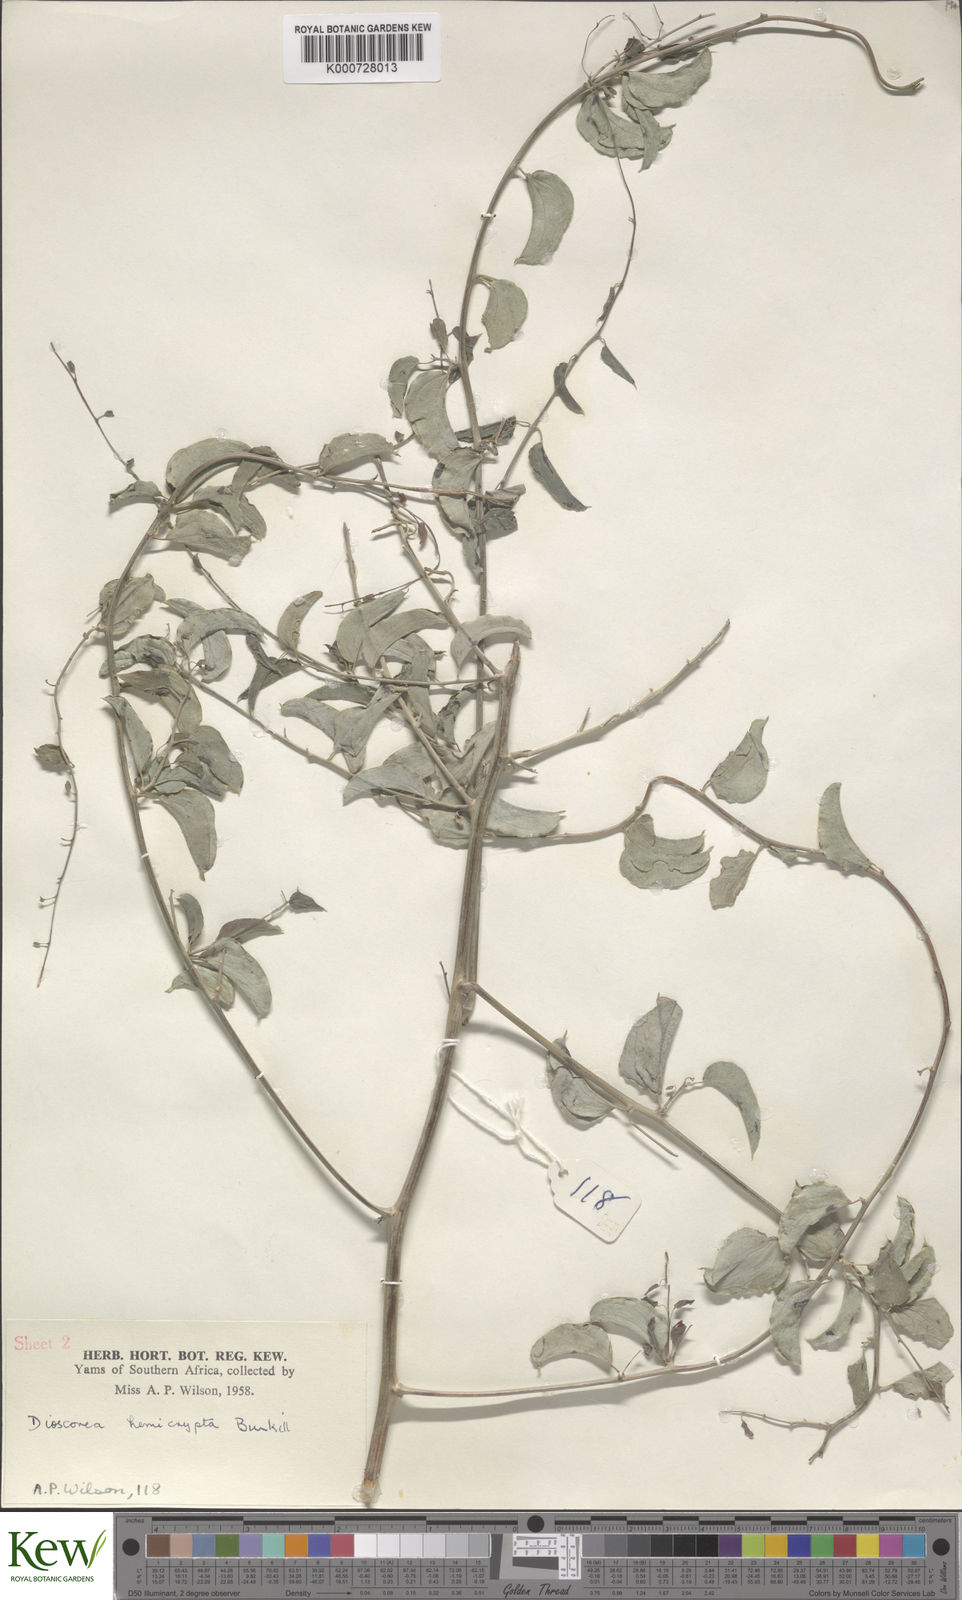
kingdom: Plantae
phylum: Tracheophyta
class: Liliopsida
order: Dioscoreales
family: Dioscoreaceae
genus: Dioscorea
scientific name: Dioscorea hemicrypta
